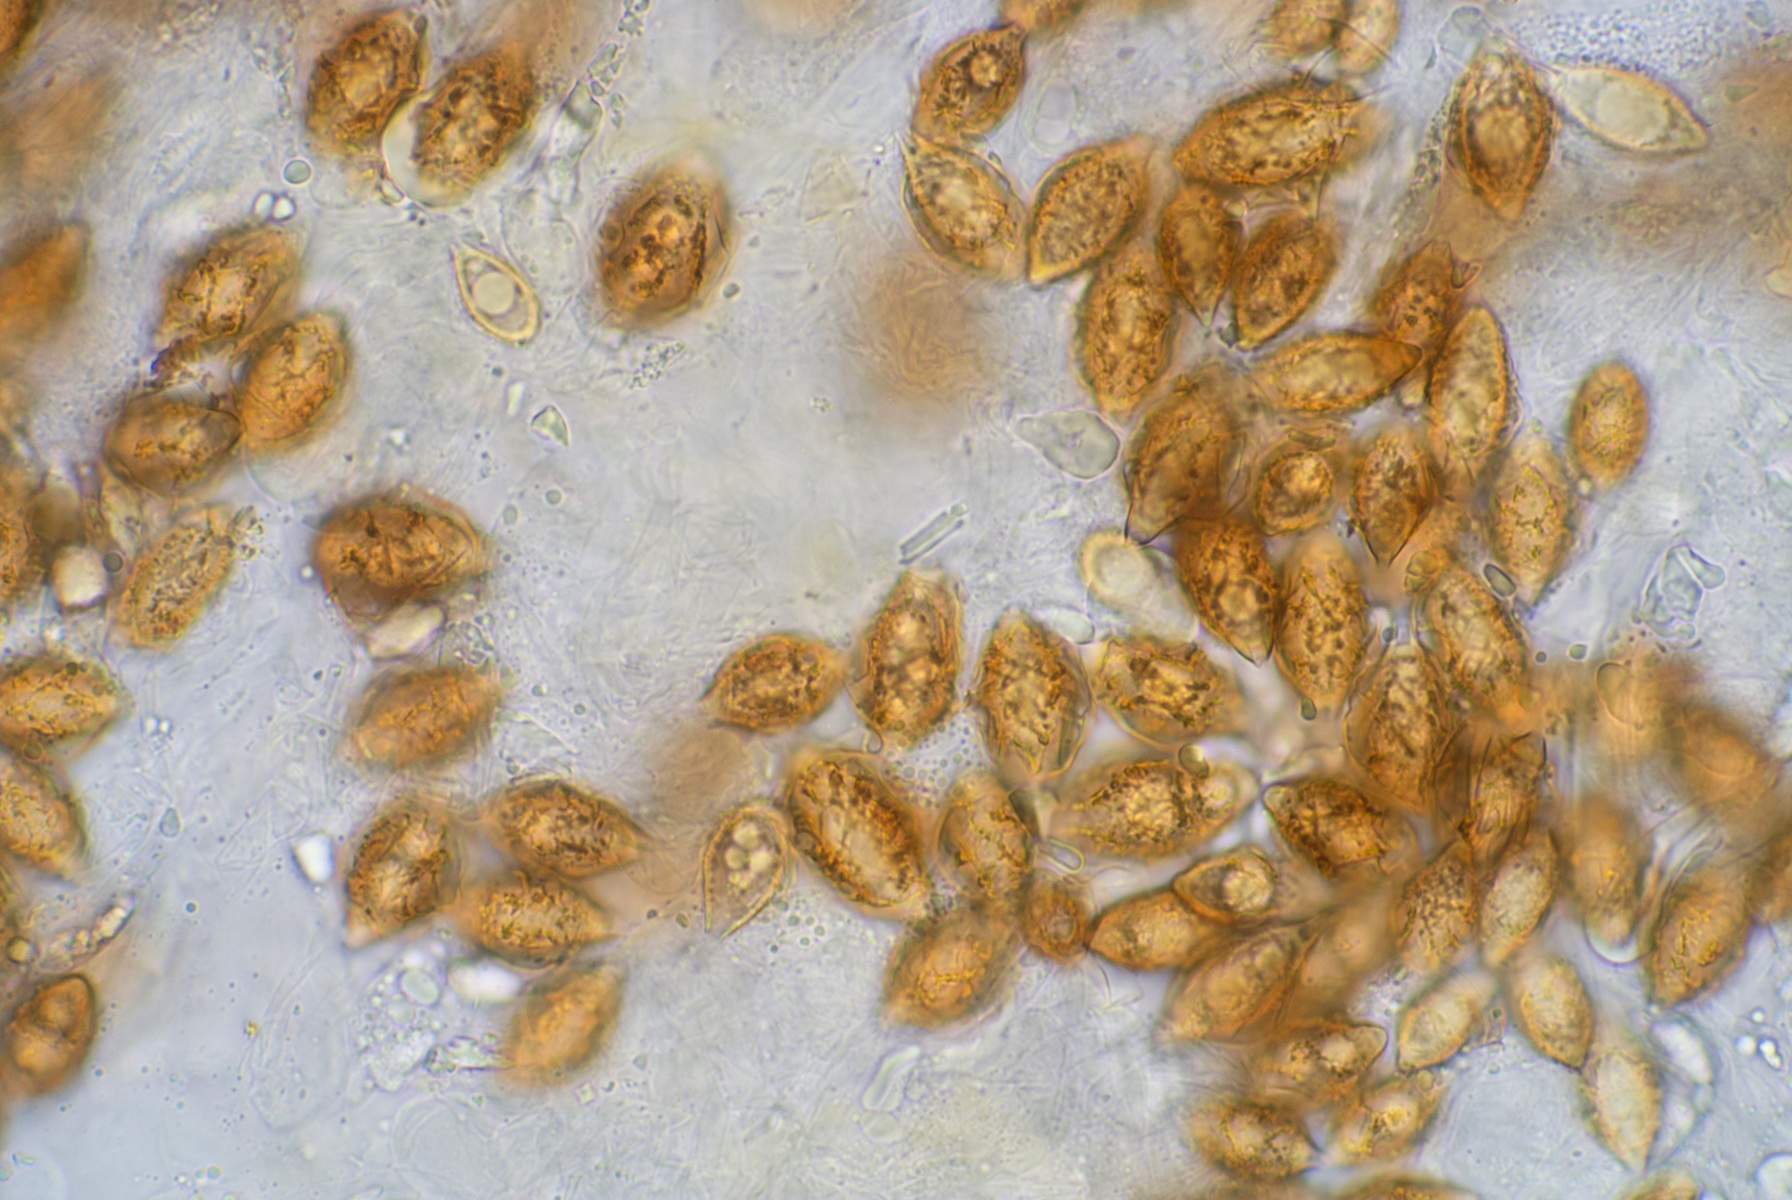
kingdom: Fungi
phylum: Basidiomycota
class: Agaricomycetes
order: Agaricales
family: Hymenogastraceae
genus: Hymenogaster
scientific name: Hymenogaster
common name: knoldtrøffel
